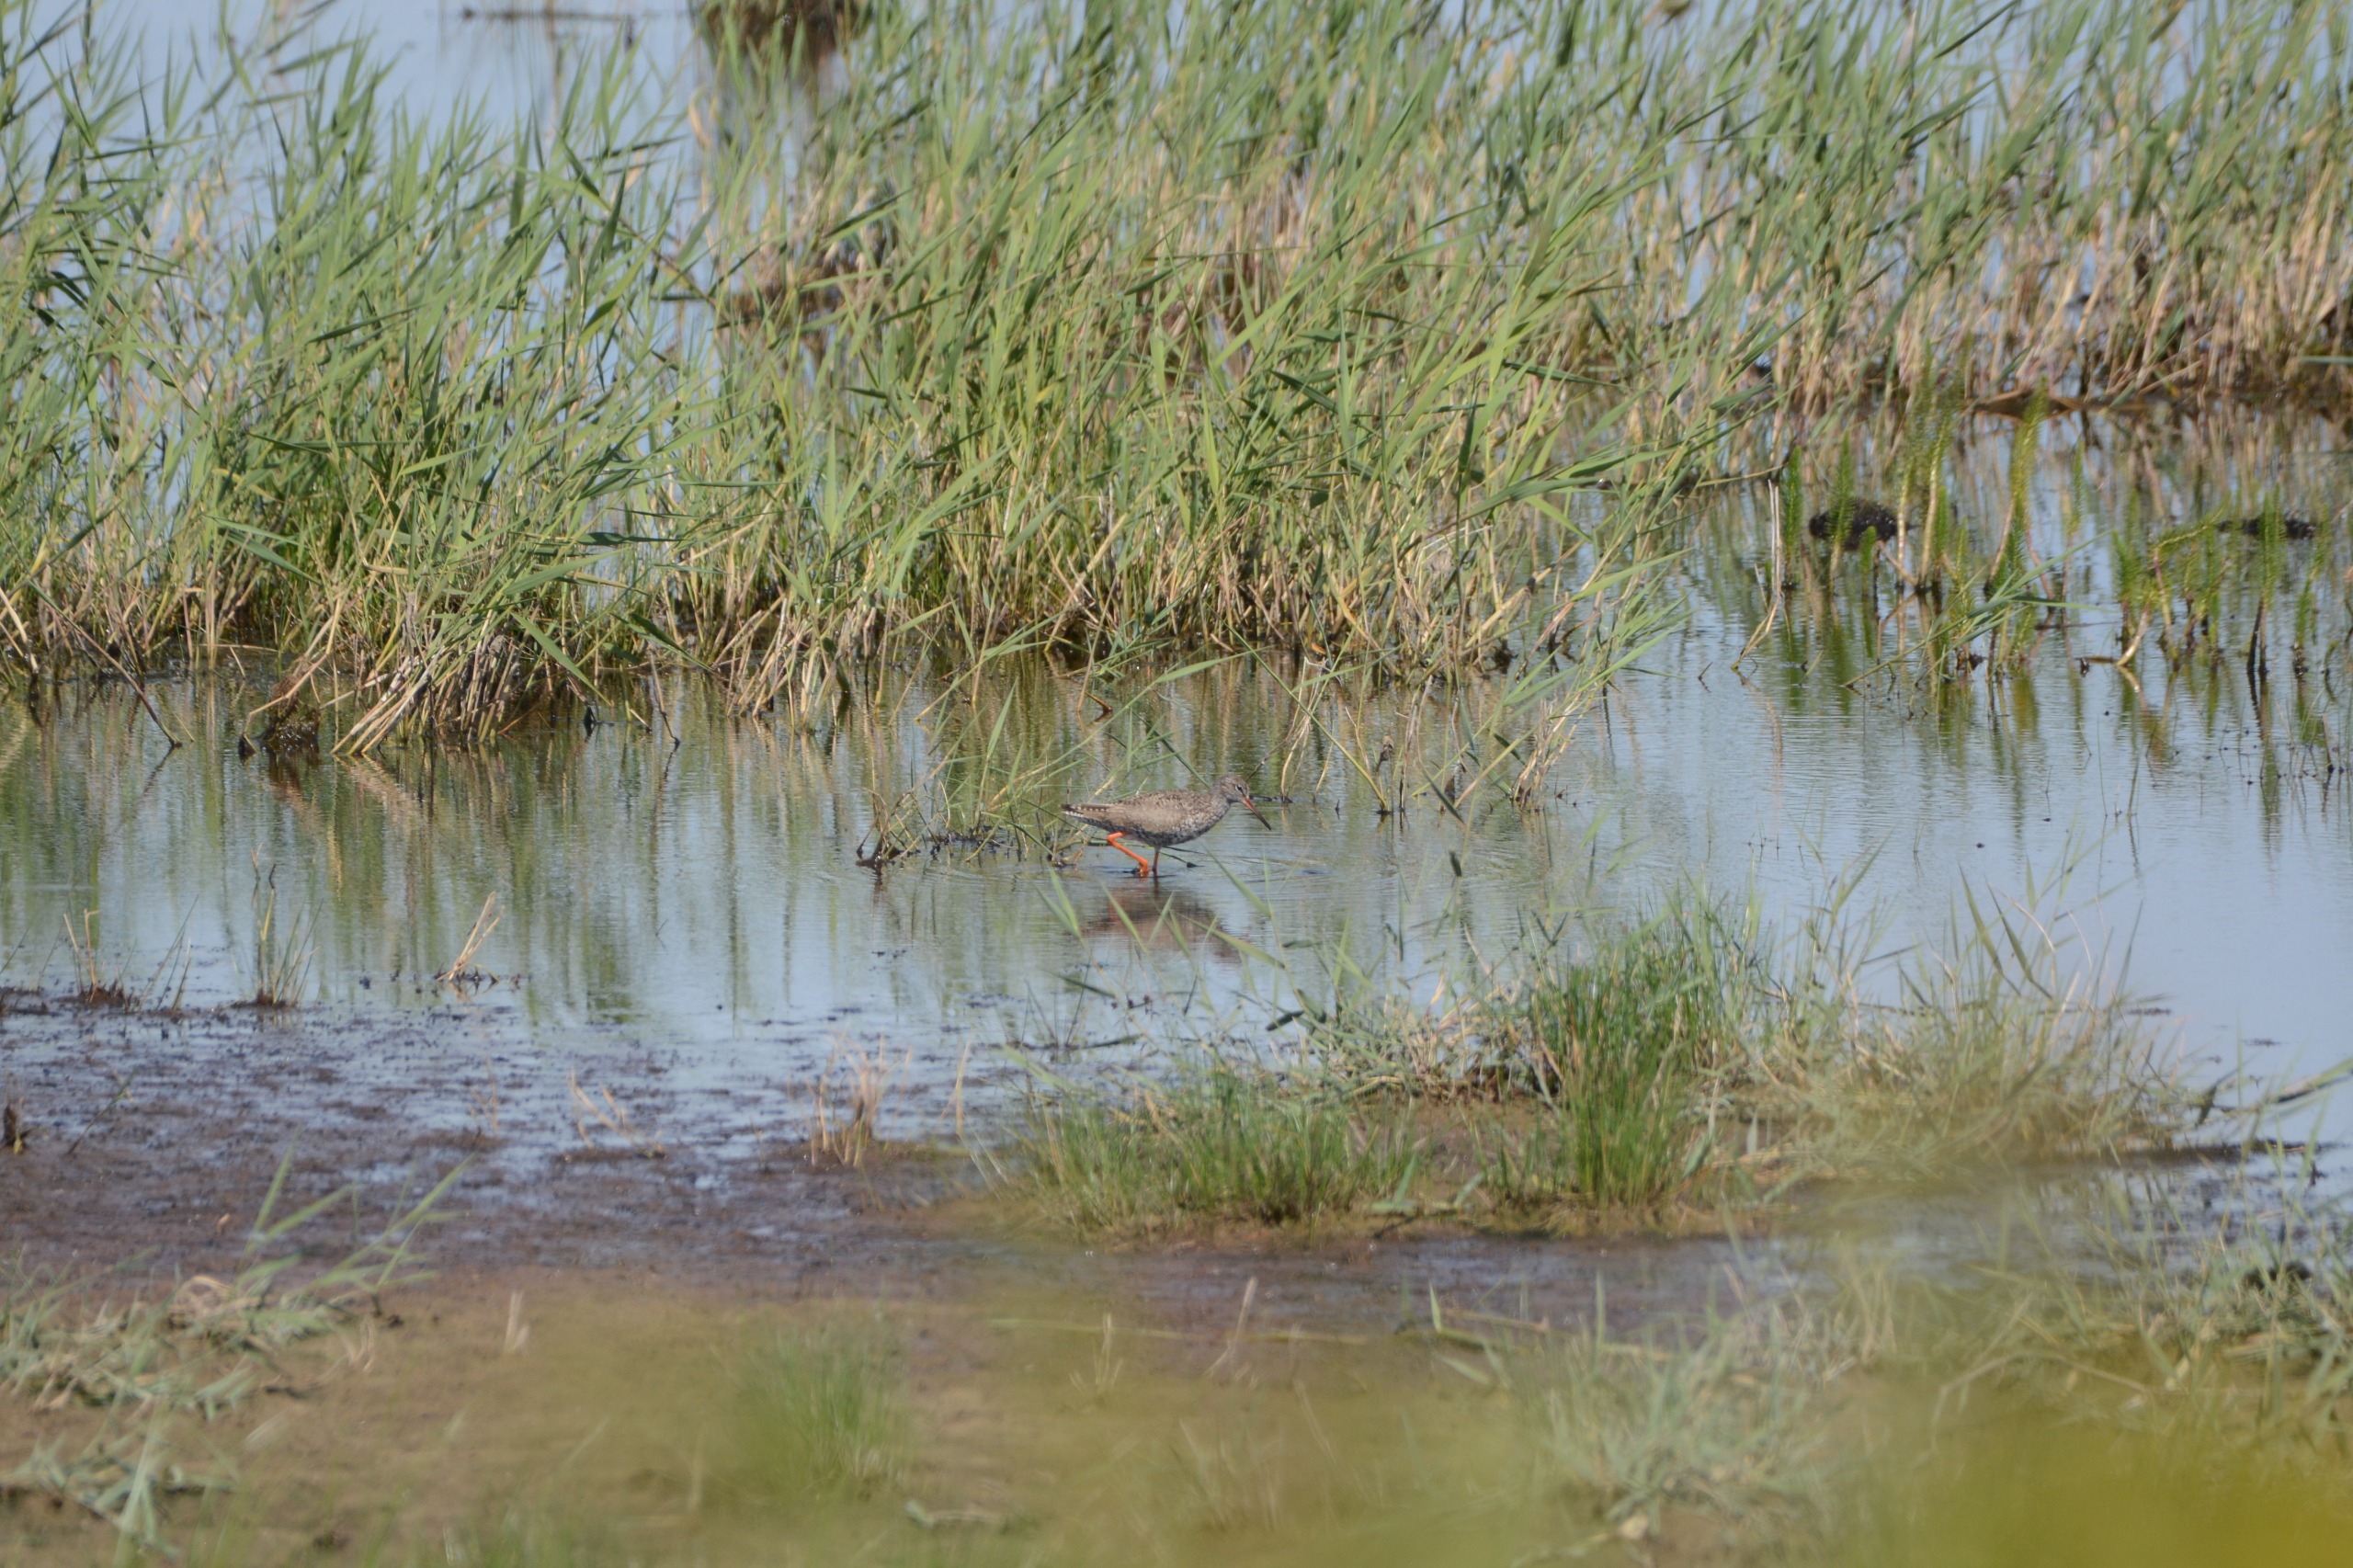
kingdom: Animalia
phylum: Chordata
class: Aves
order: Charadriiformes
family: Scolopacidae
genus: Tringa
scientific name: Tringa totanus
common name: Rødben
